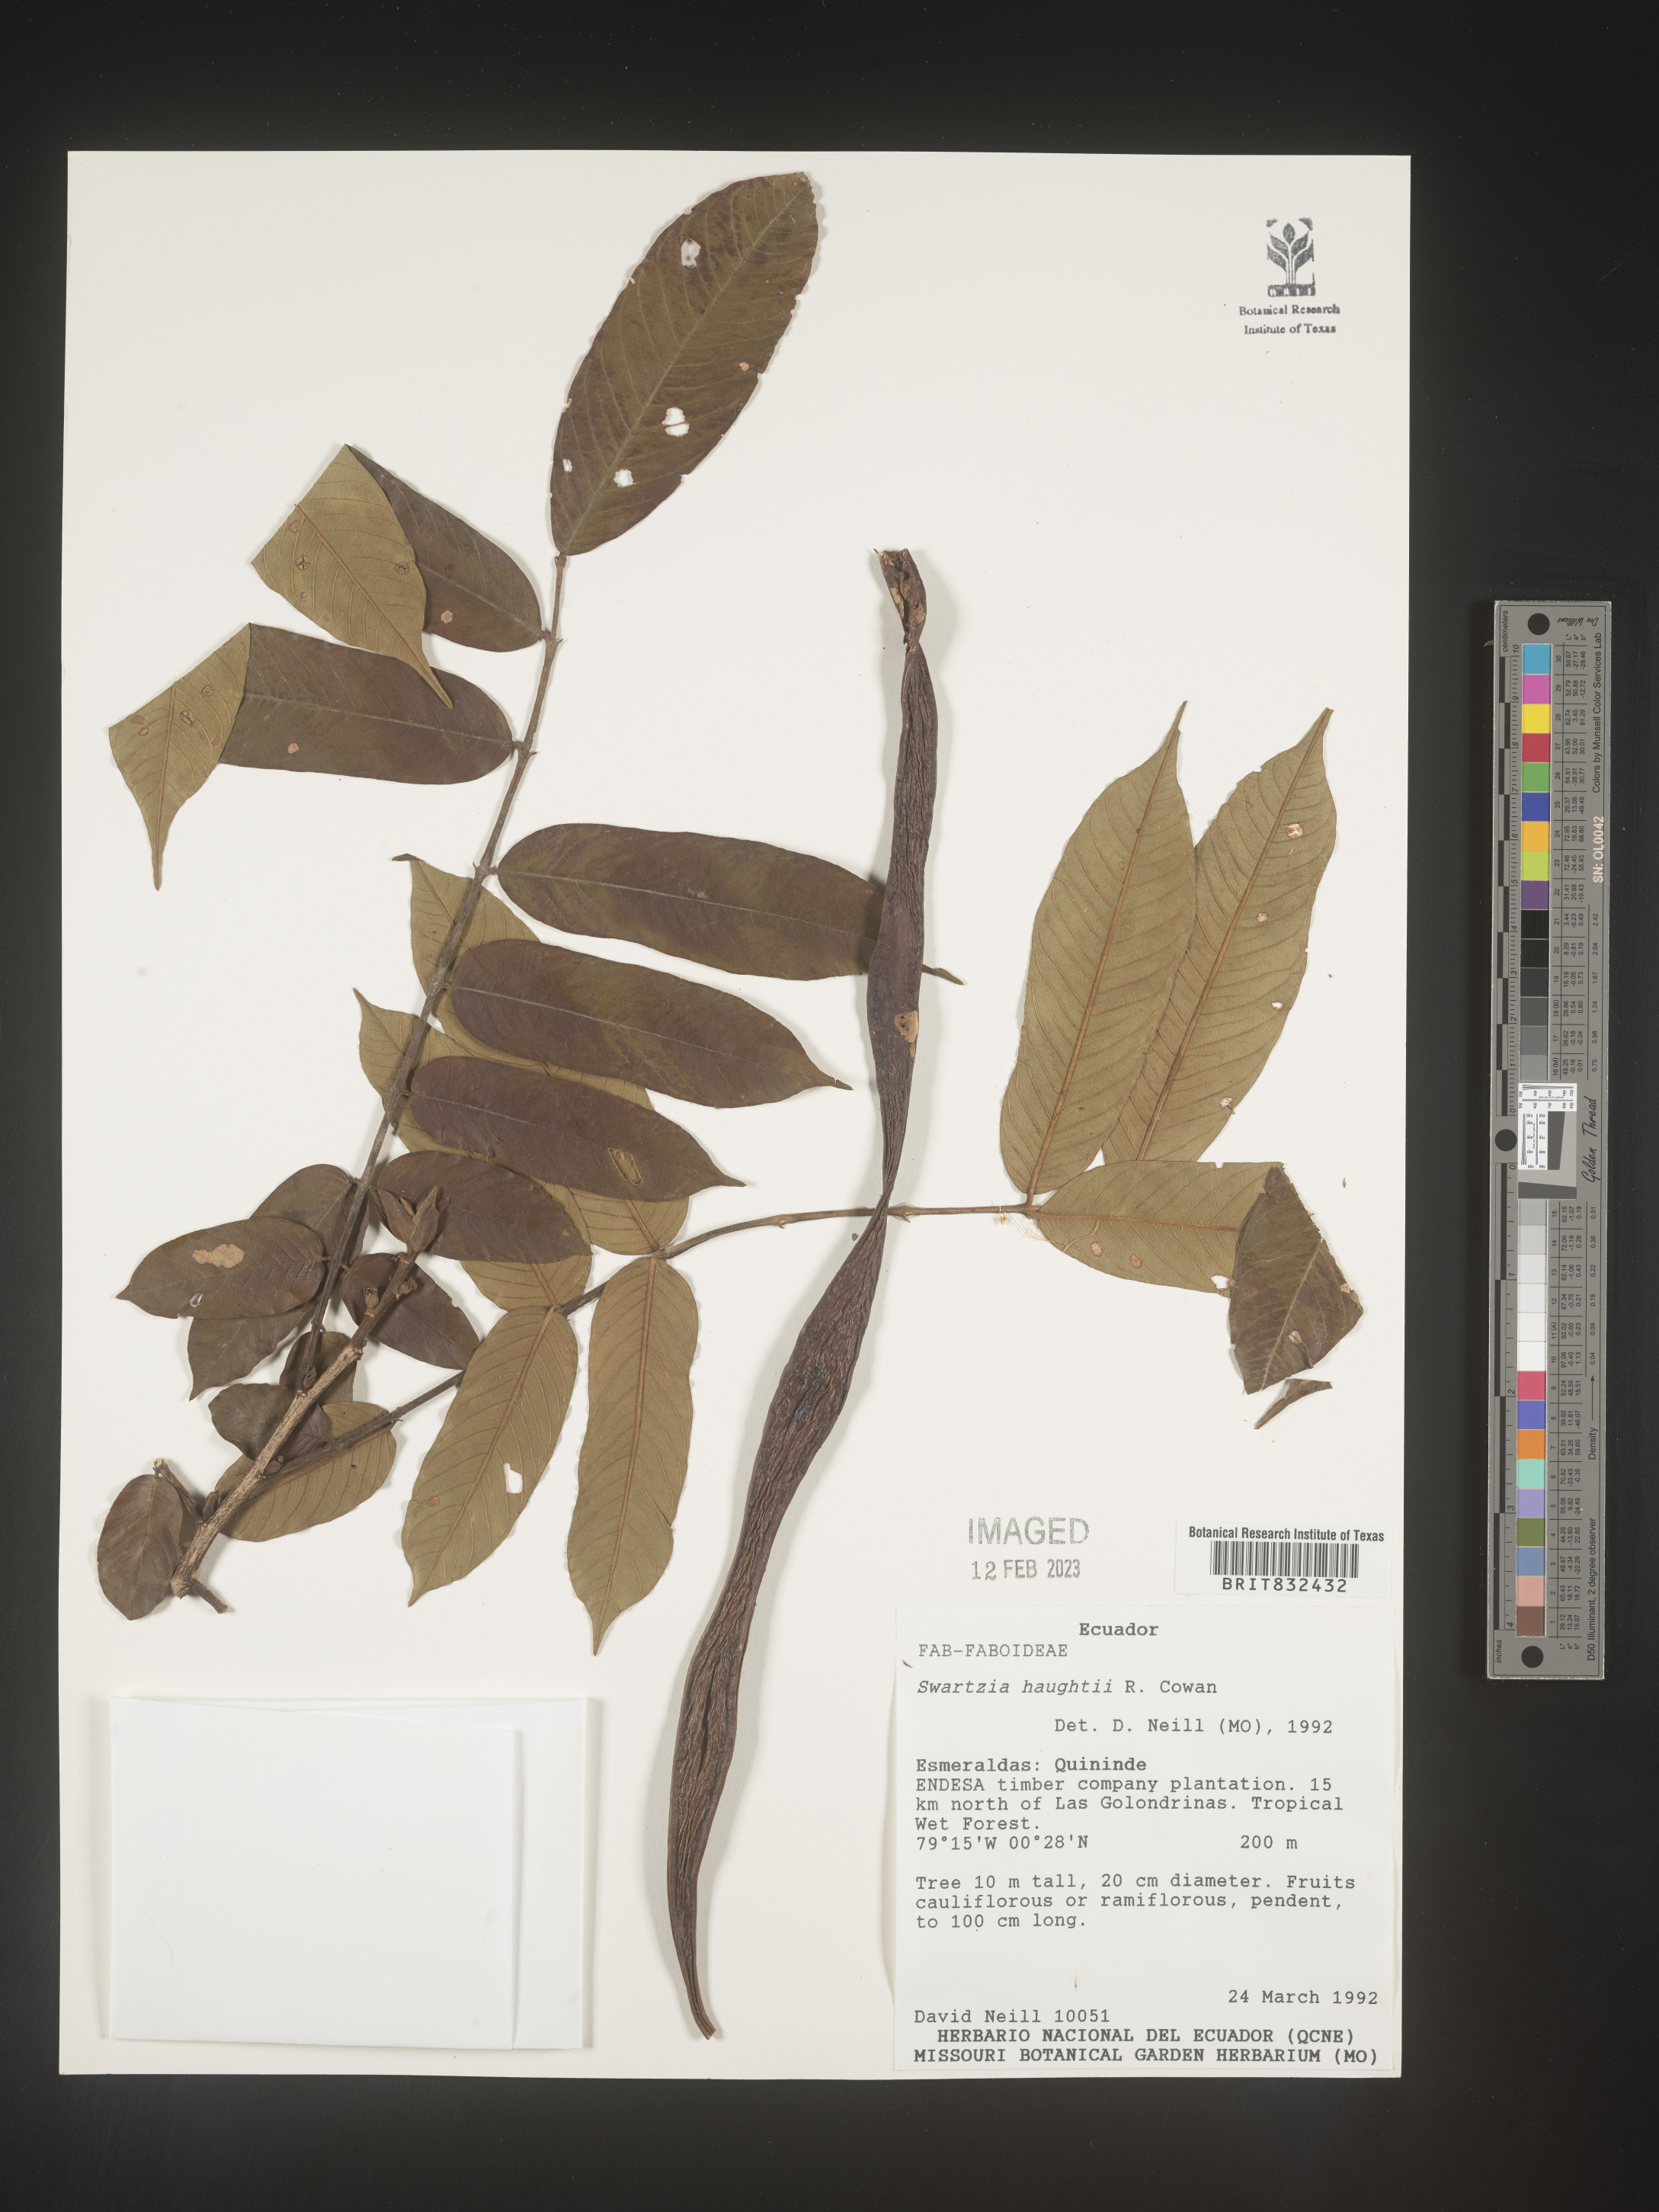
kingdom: Plantae
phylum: Tracheophyta
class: Magnoliopsida
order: Fabales
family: Fabaceae
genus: Swartzia
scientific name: Swartzia
